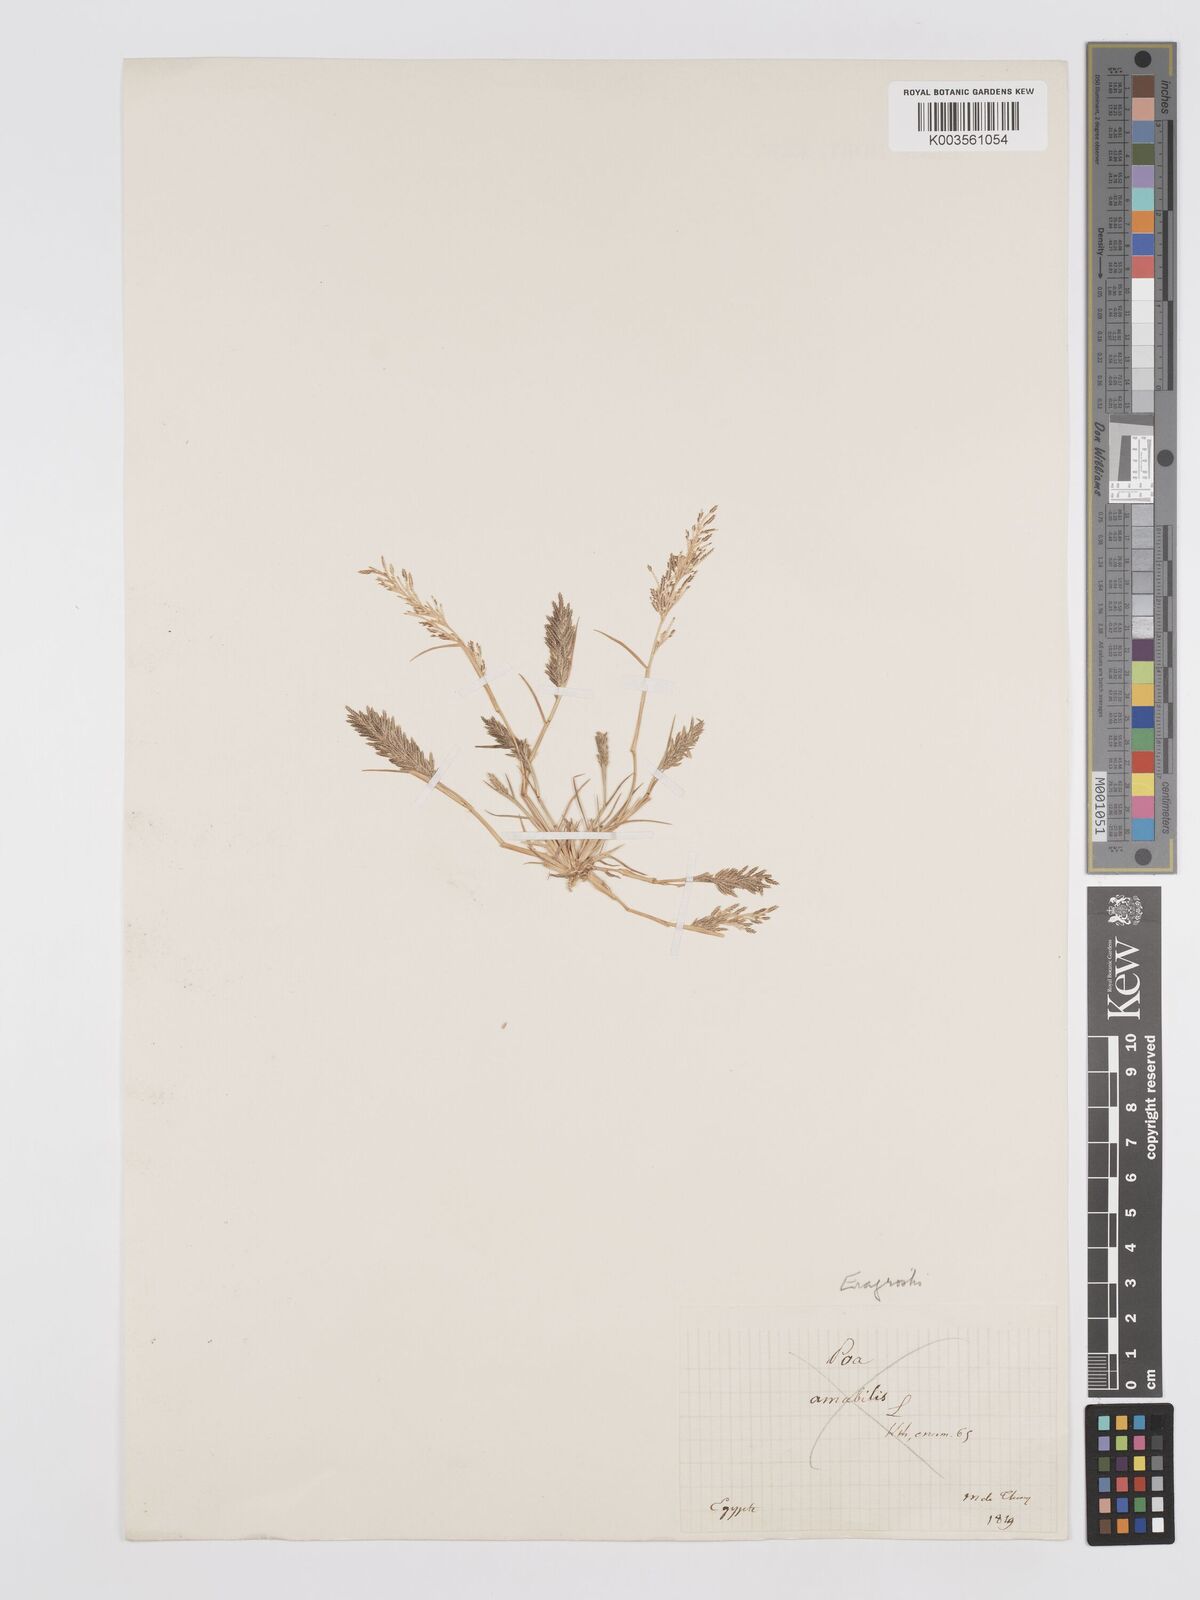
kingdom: Plantae
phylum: Tracheophyta
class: Liliopsida
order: Poales
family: Poaceae
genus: Eragrostis
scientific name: Eragrostis aegyptiaca
